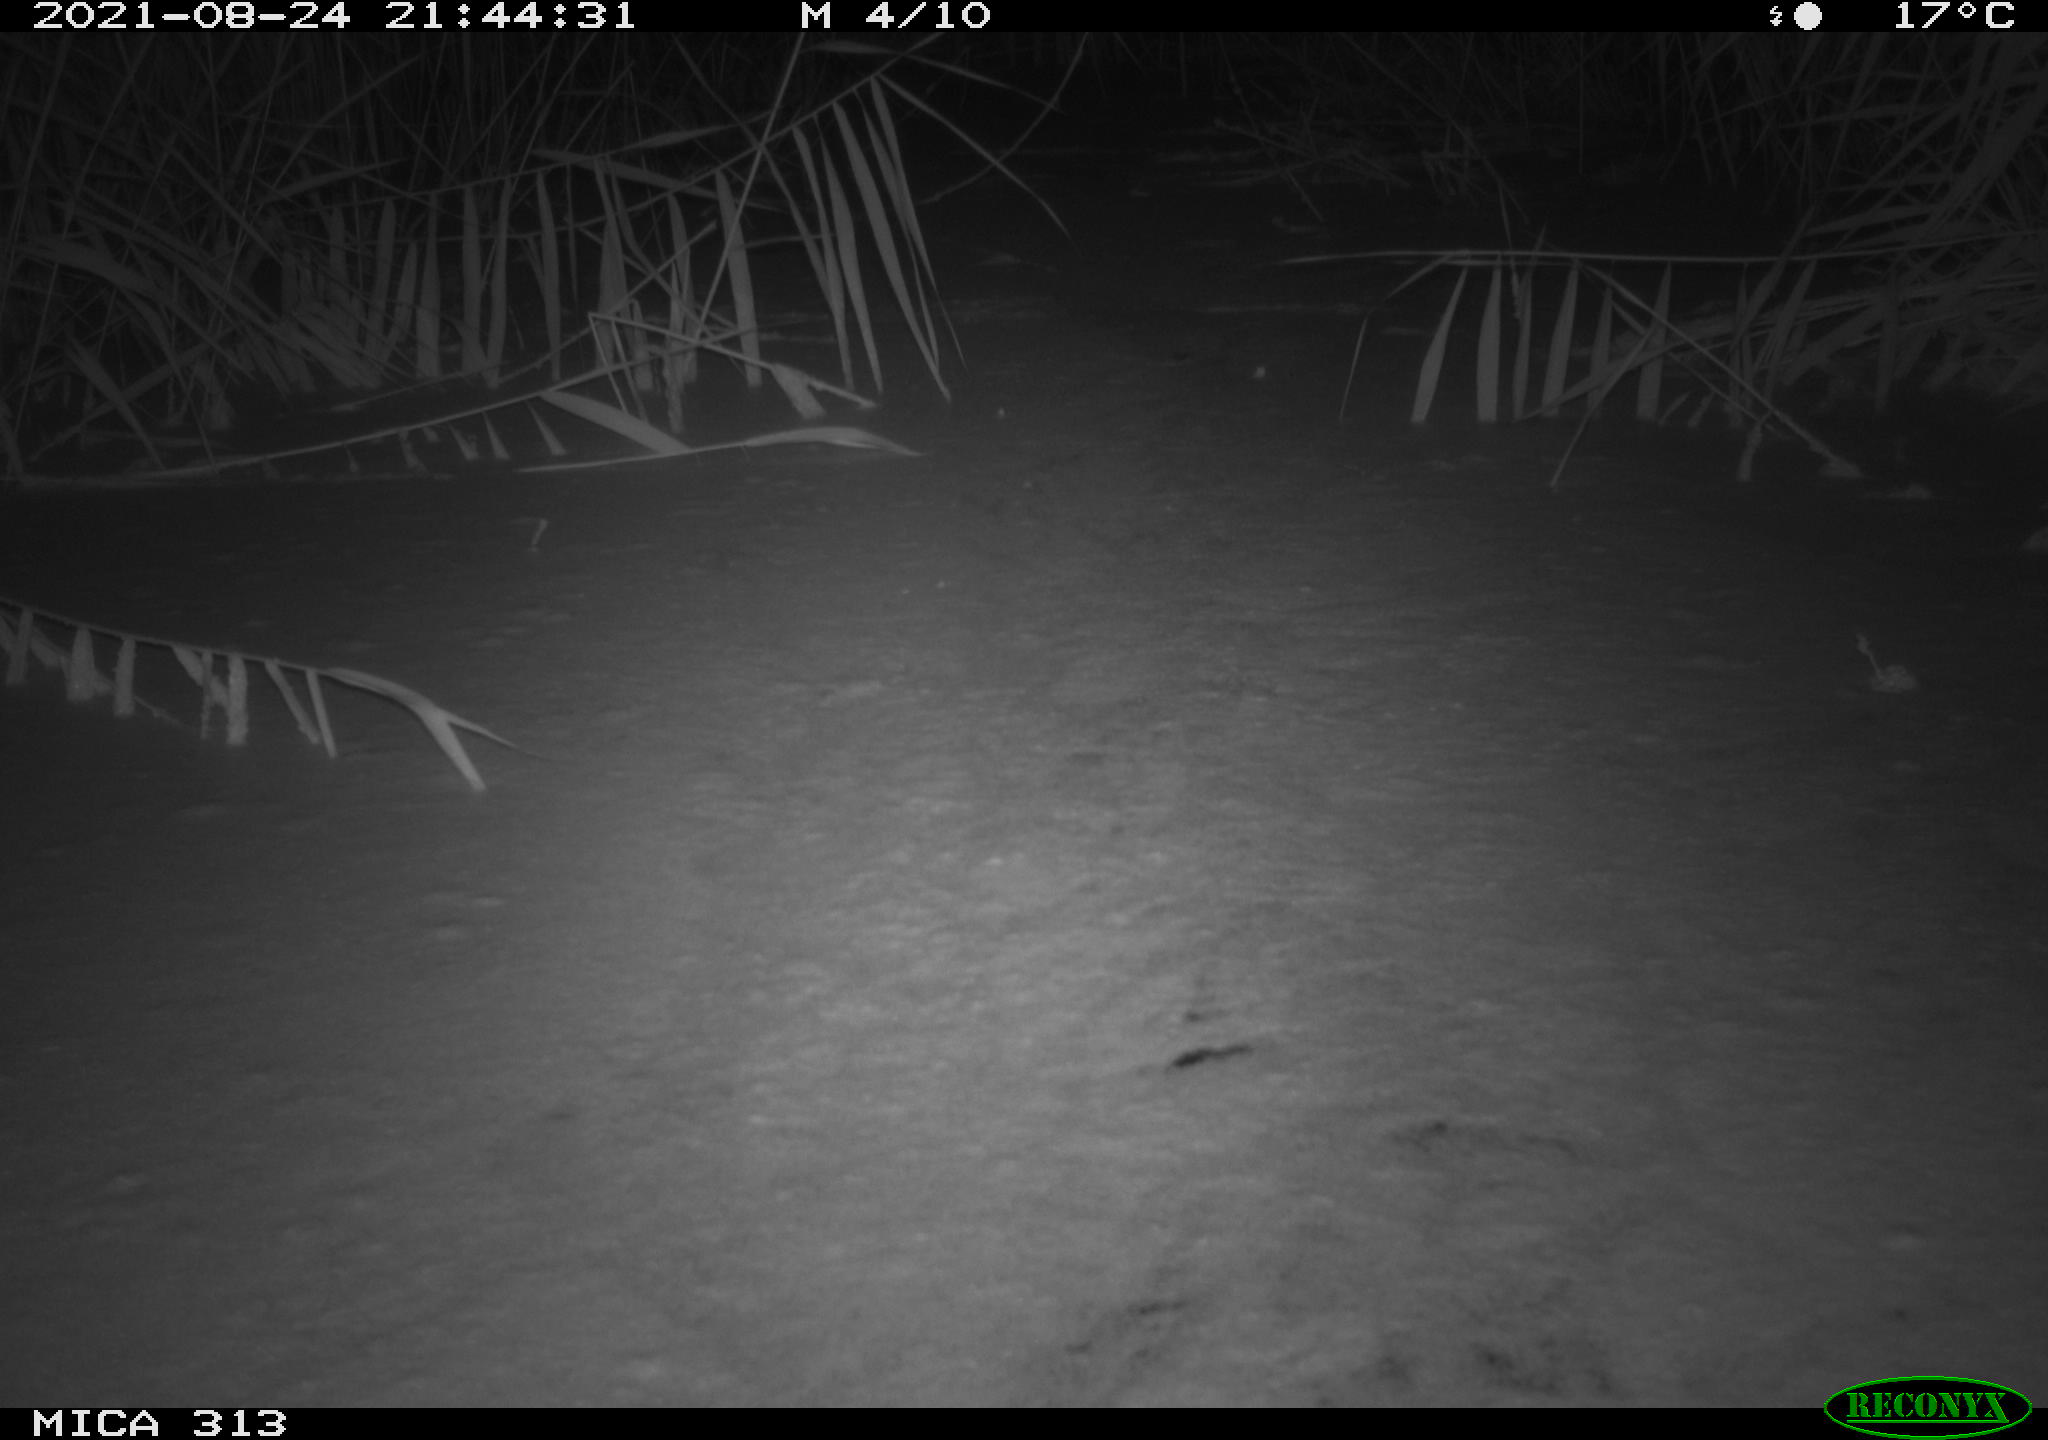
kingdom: Animalia
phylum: Chordata
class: Mammalia
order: Rodentia
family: Muridae
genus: Rattus
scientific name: Rattus norvegicus
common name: Brown rat
